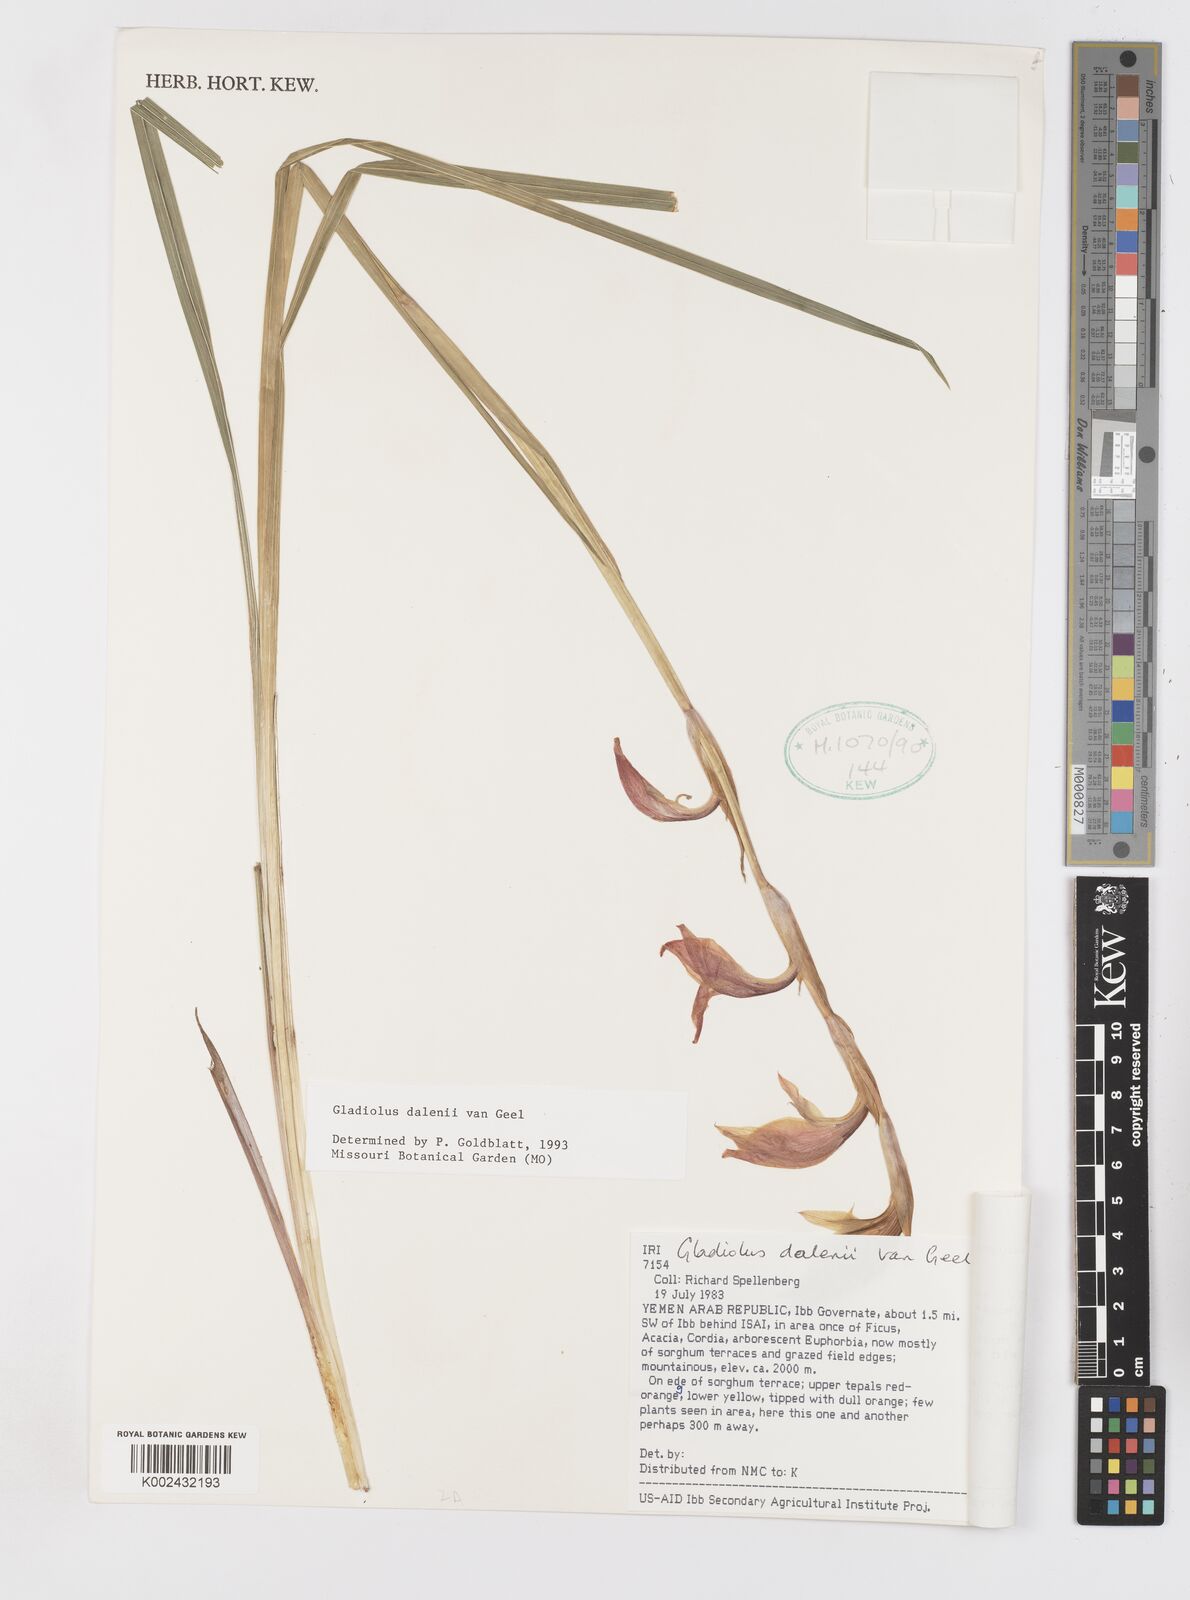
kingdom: Plantae
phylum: Tracheophyta
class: Liliopsida
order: Asparagales
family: Iridaceae
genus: Gladiolus
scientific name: Gladiolus dalenii
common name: Cornflag
